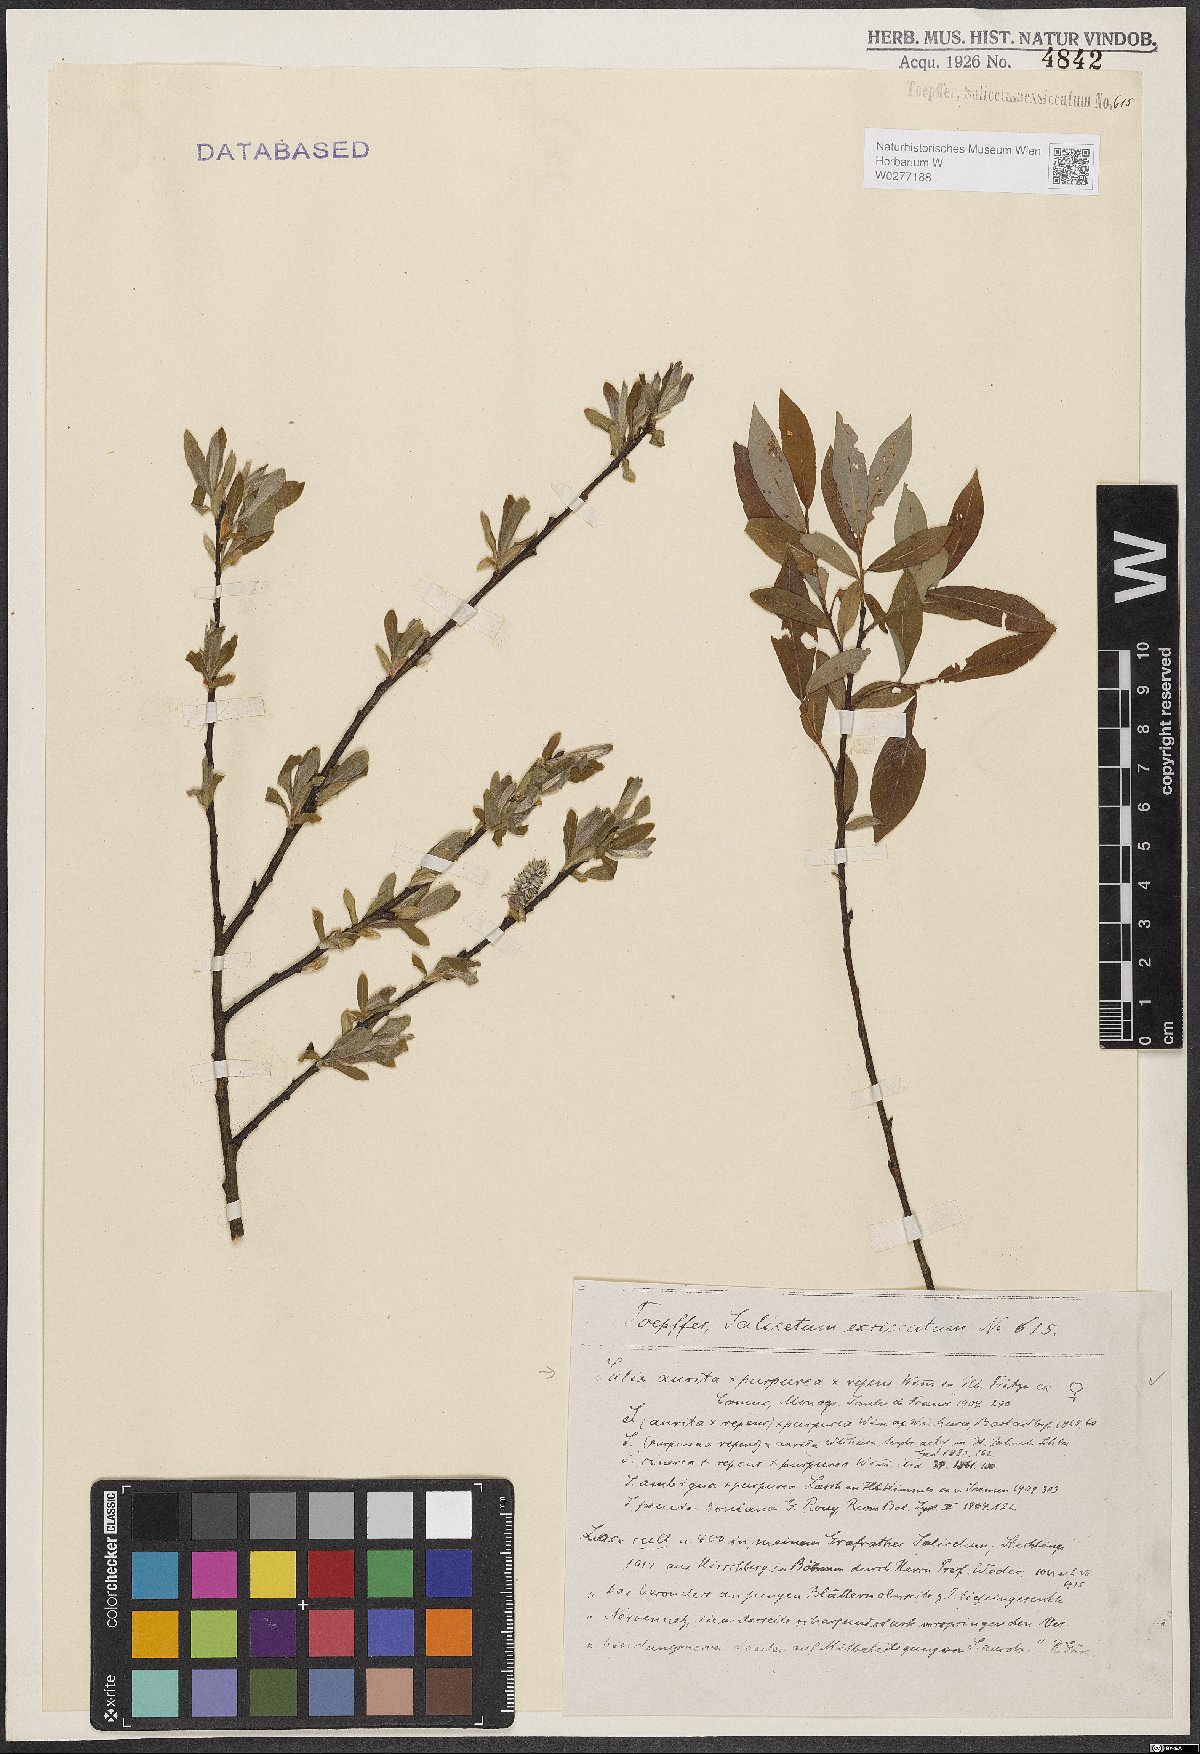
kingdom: Plantae
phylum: Tracheophyta
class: Magnoliopsida
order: Malpighiales
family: Salicaceae
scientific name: Salicaceae
